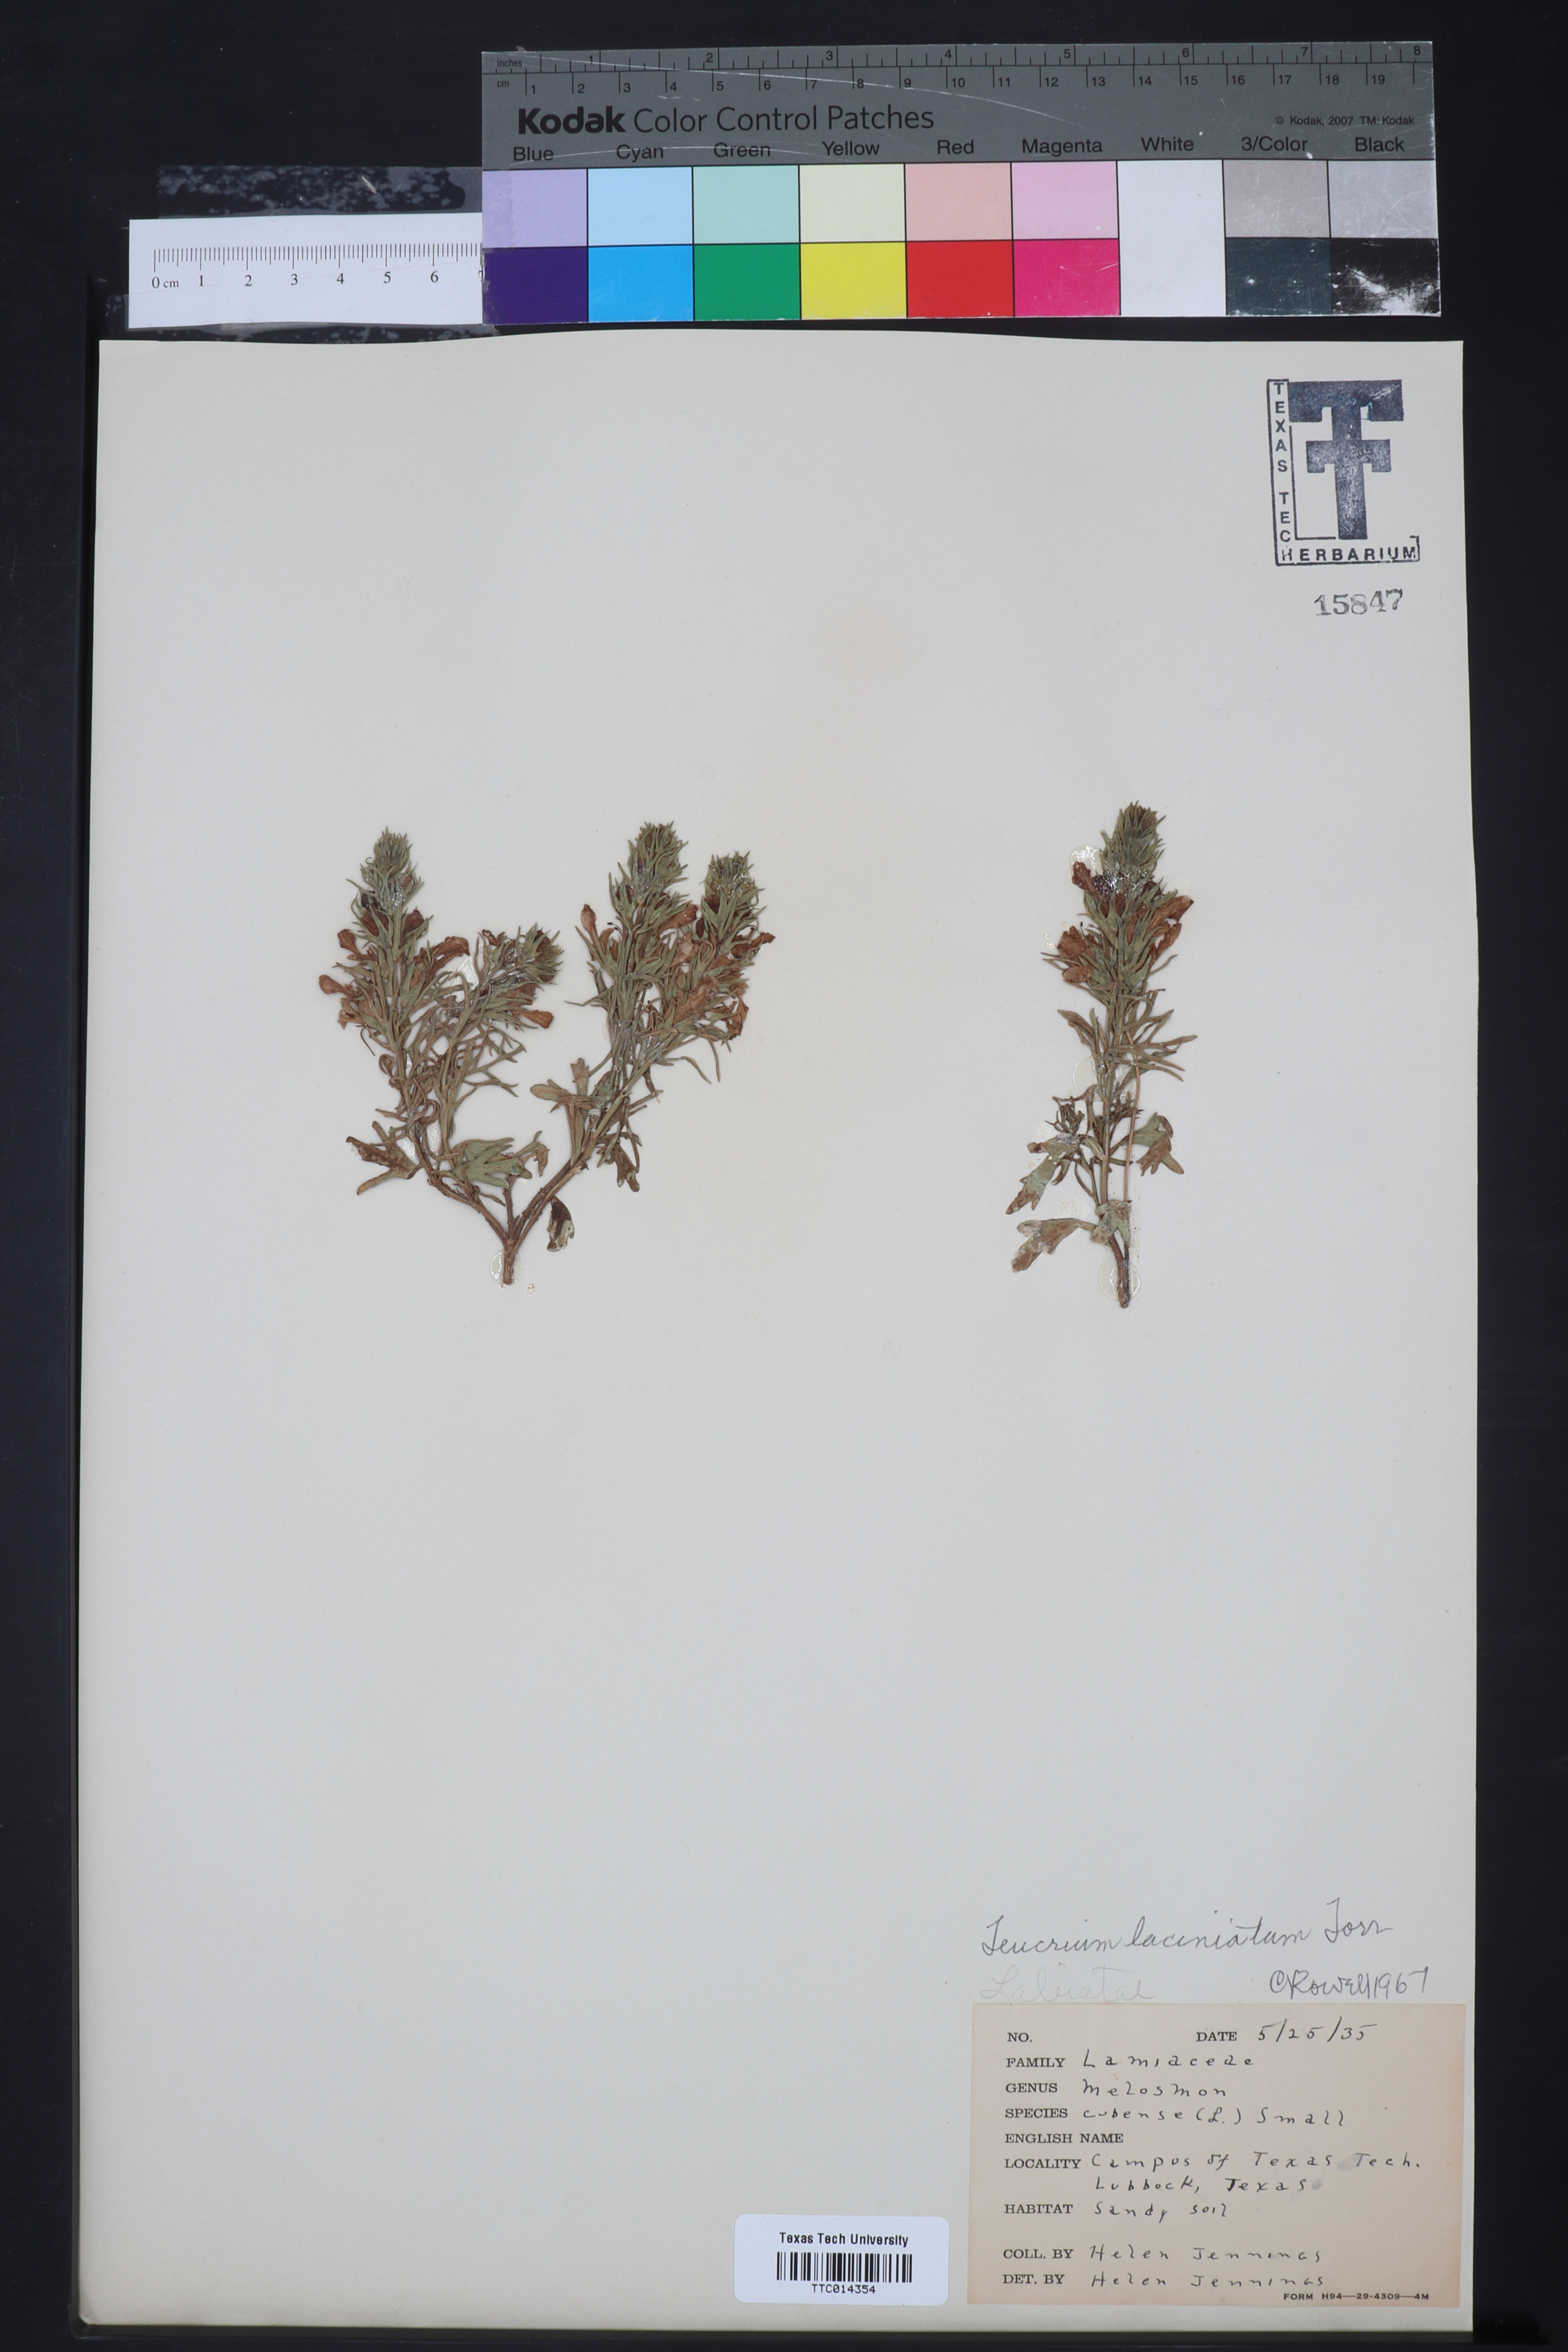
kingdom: Plantae
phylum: Tracheophyta
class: Magnoliopsida
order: Lamiales
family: Lamiaceae
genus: Teucrium
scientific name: Teucrium laciniatum
